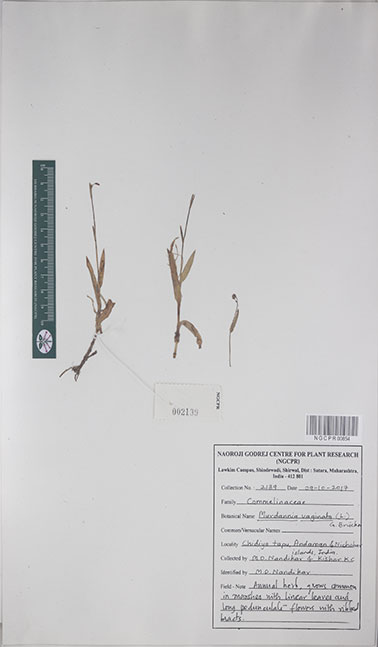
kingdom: Plantae
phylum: Tracheophyta
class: Liliopsida
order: Commelinales
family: Commelinaceae
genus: Murdannia
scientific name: Murdannia vaginata
